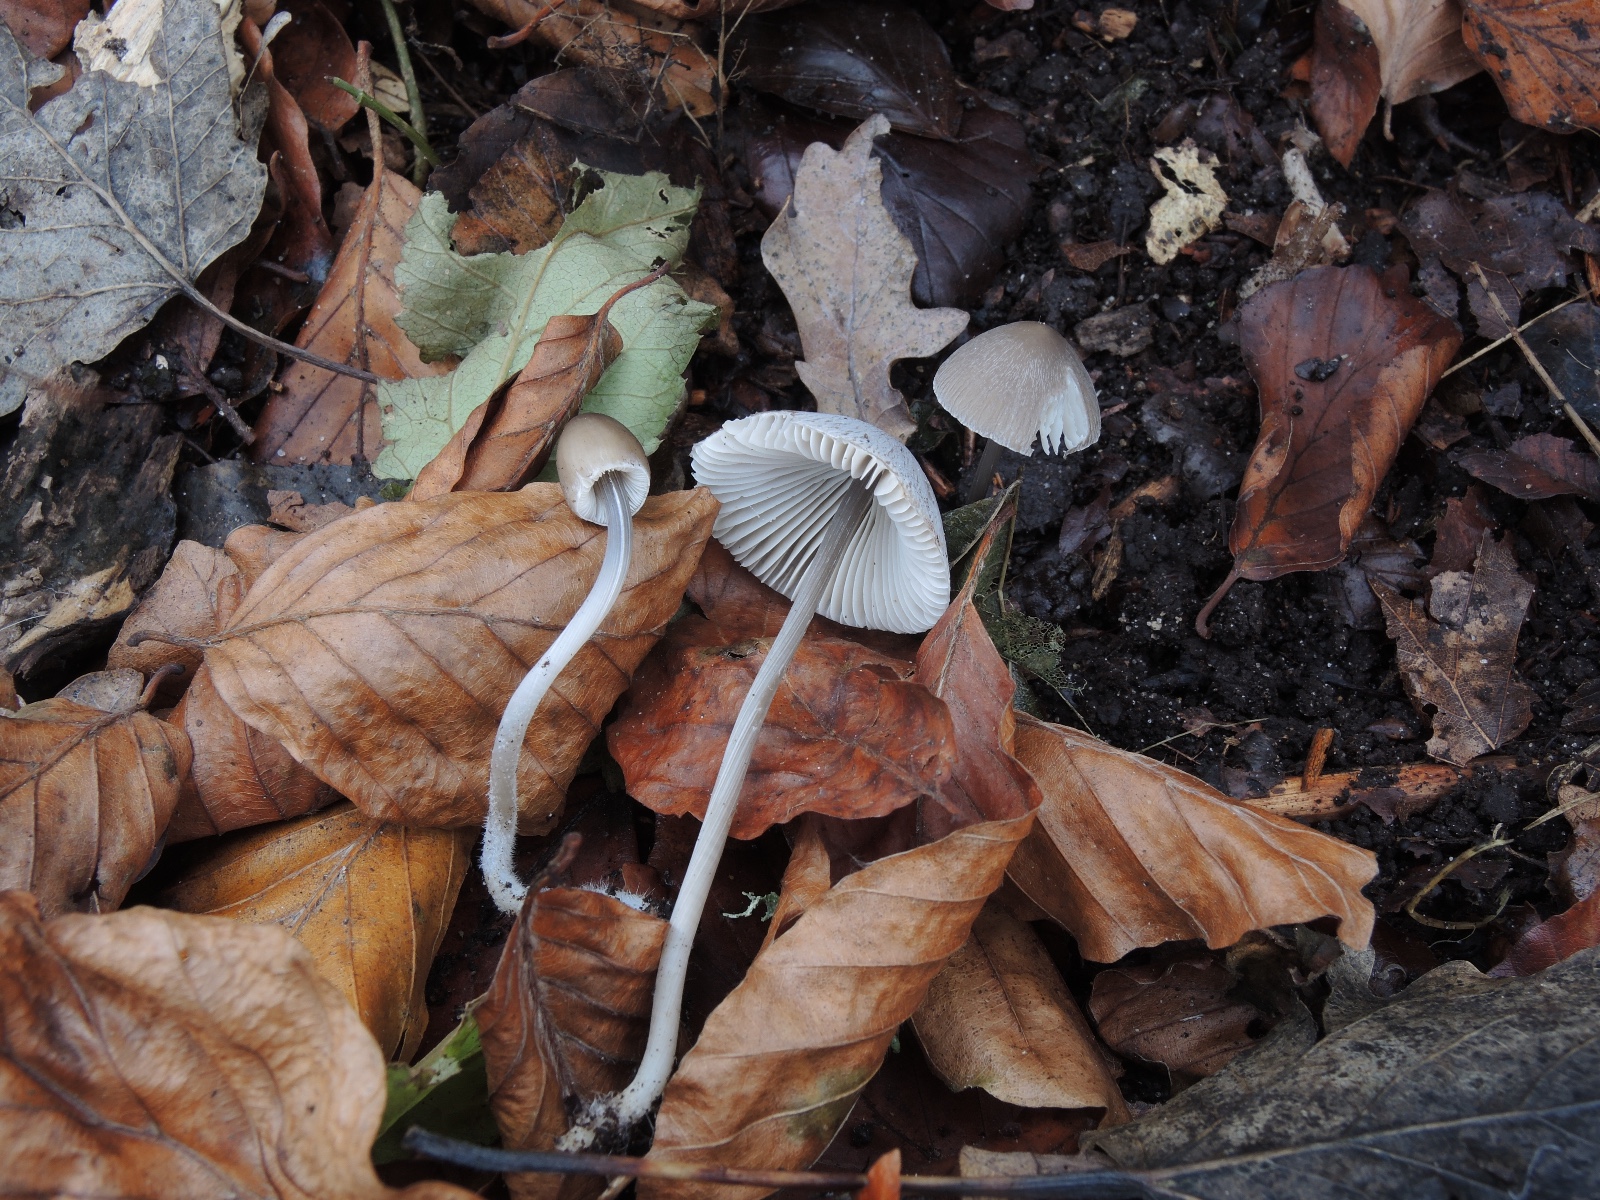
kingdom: Fungi
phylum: Basidiomycota
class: Agaricomycetes
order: Agaricales
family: Mycenaceae
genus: Mycena
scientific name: Mycena polygramma
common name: mangestribet huesvamp
